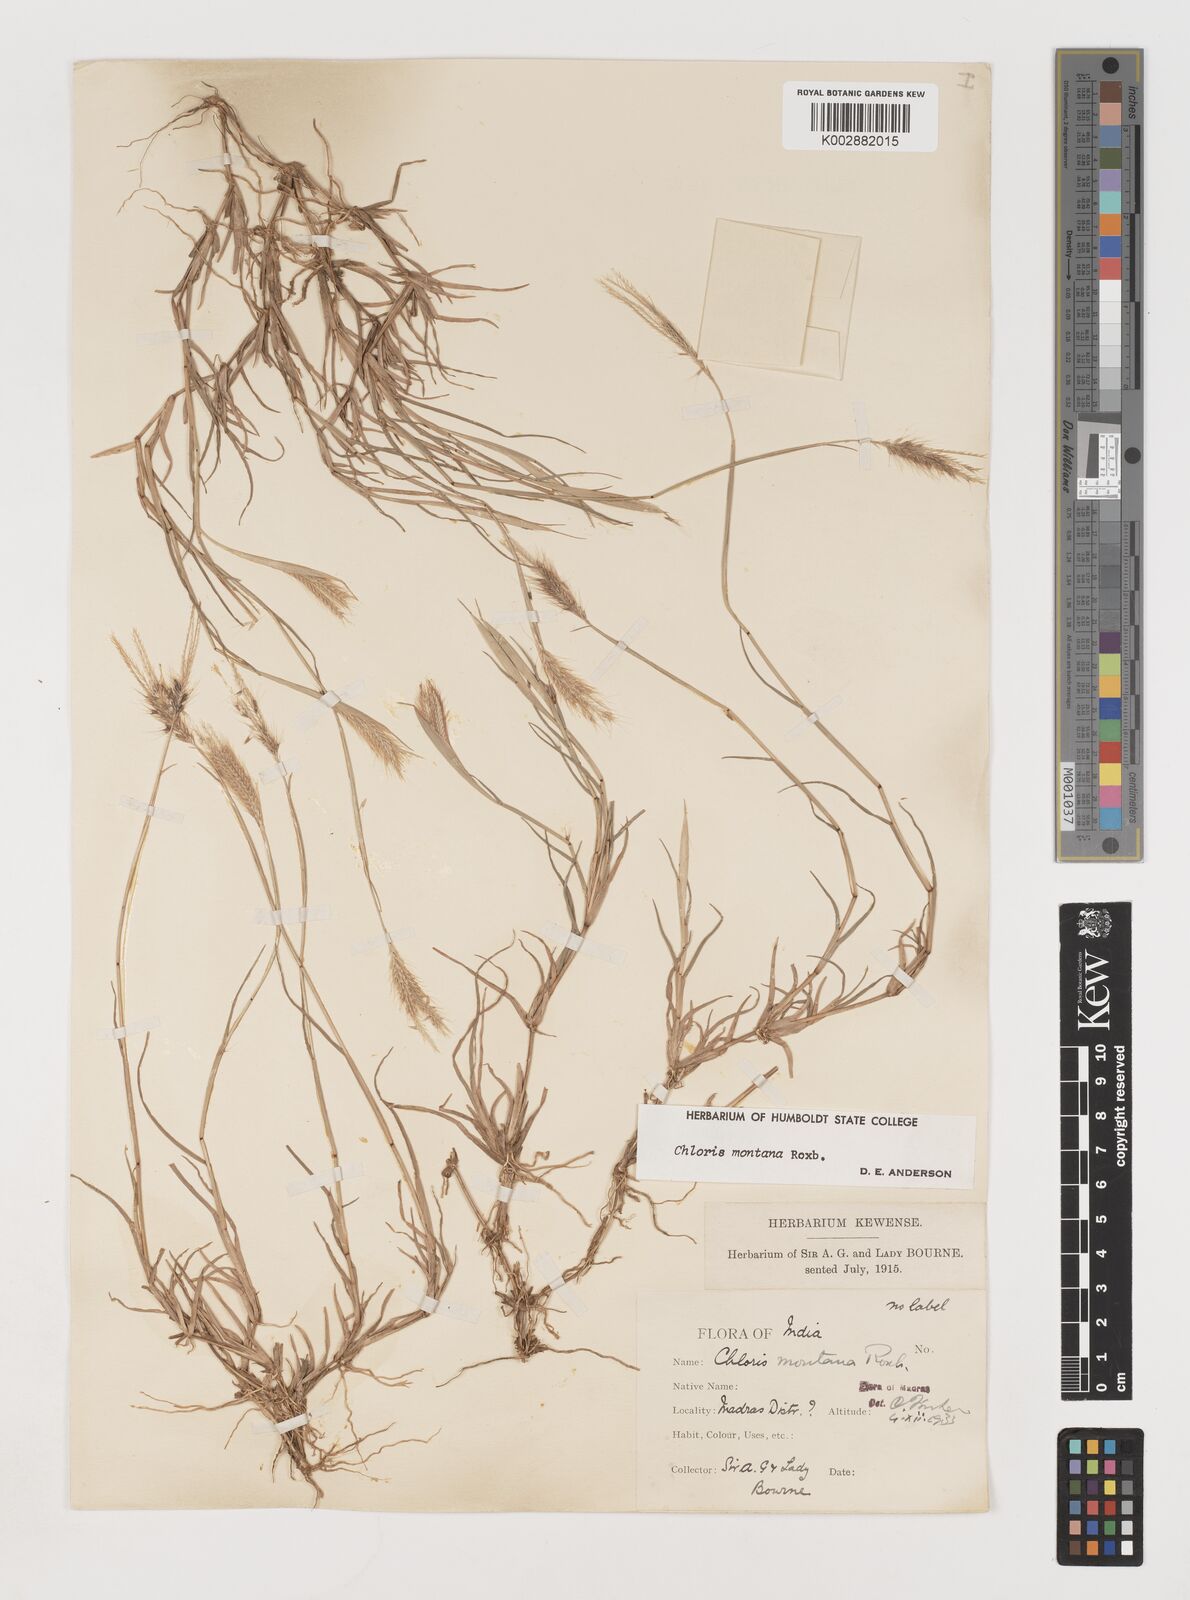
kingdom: Plantae
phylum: Tracheophyta
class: Liliopsida
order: Poales
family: Poaceae
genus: Chloris
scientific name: Chloris montana
